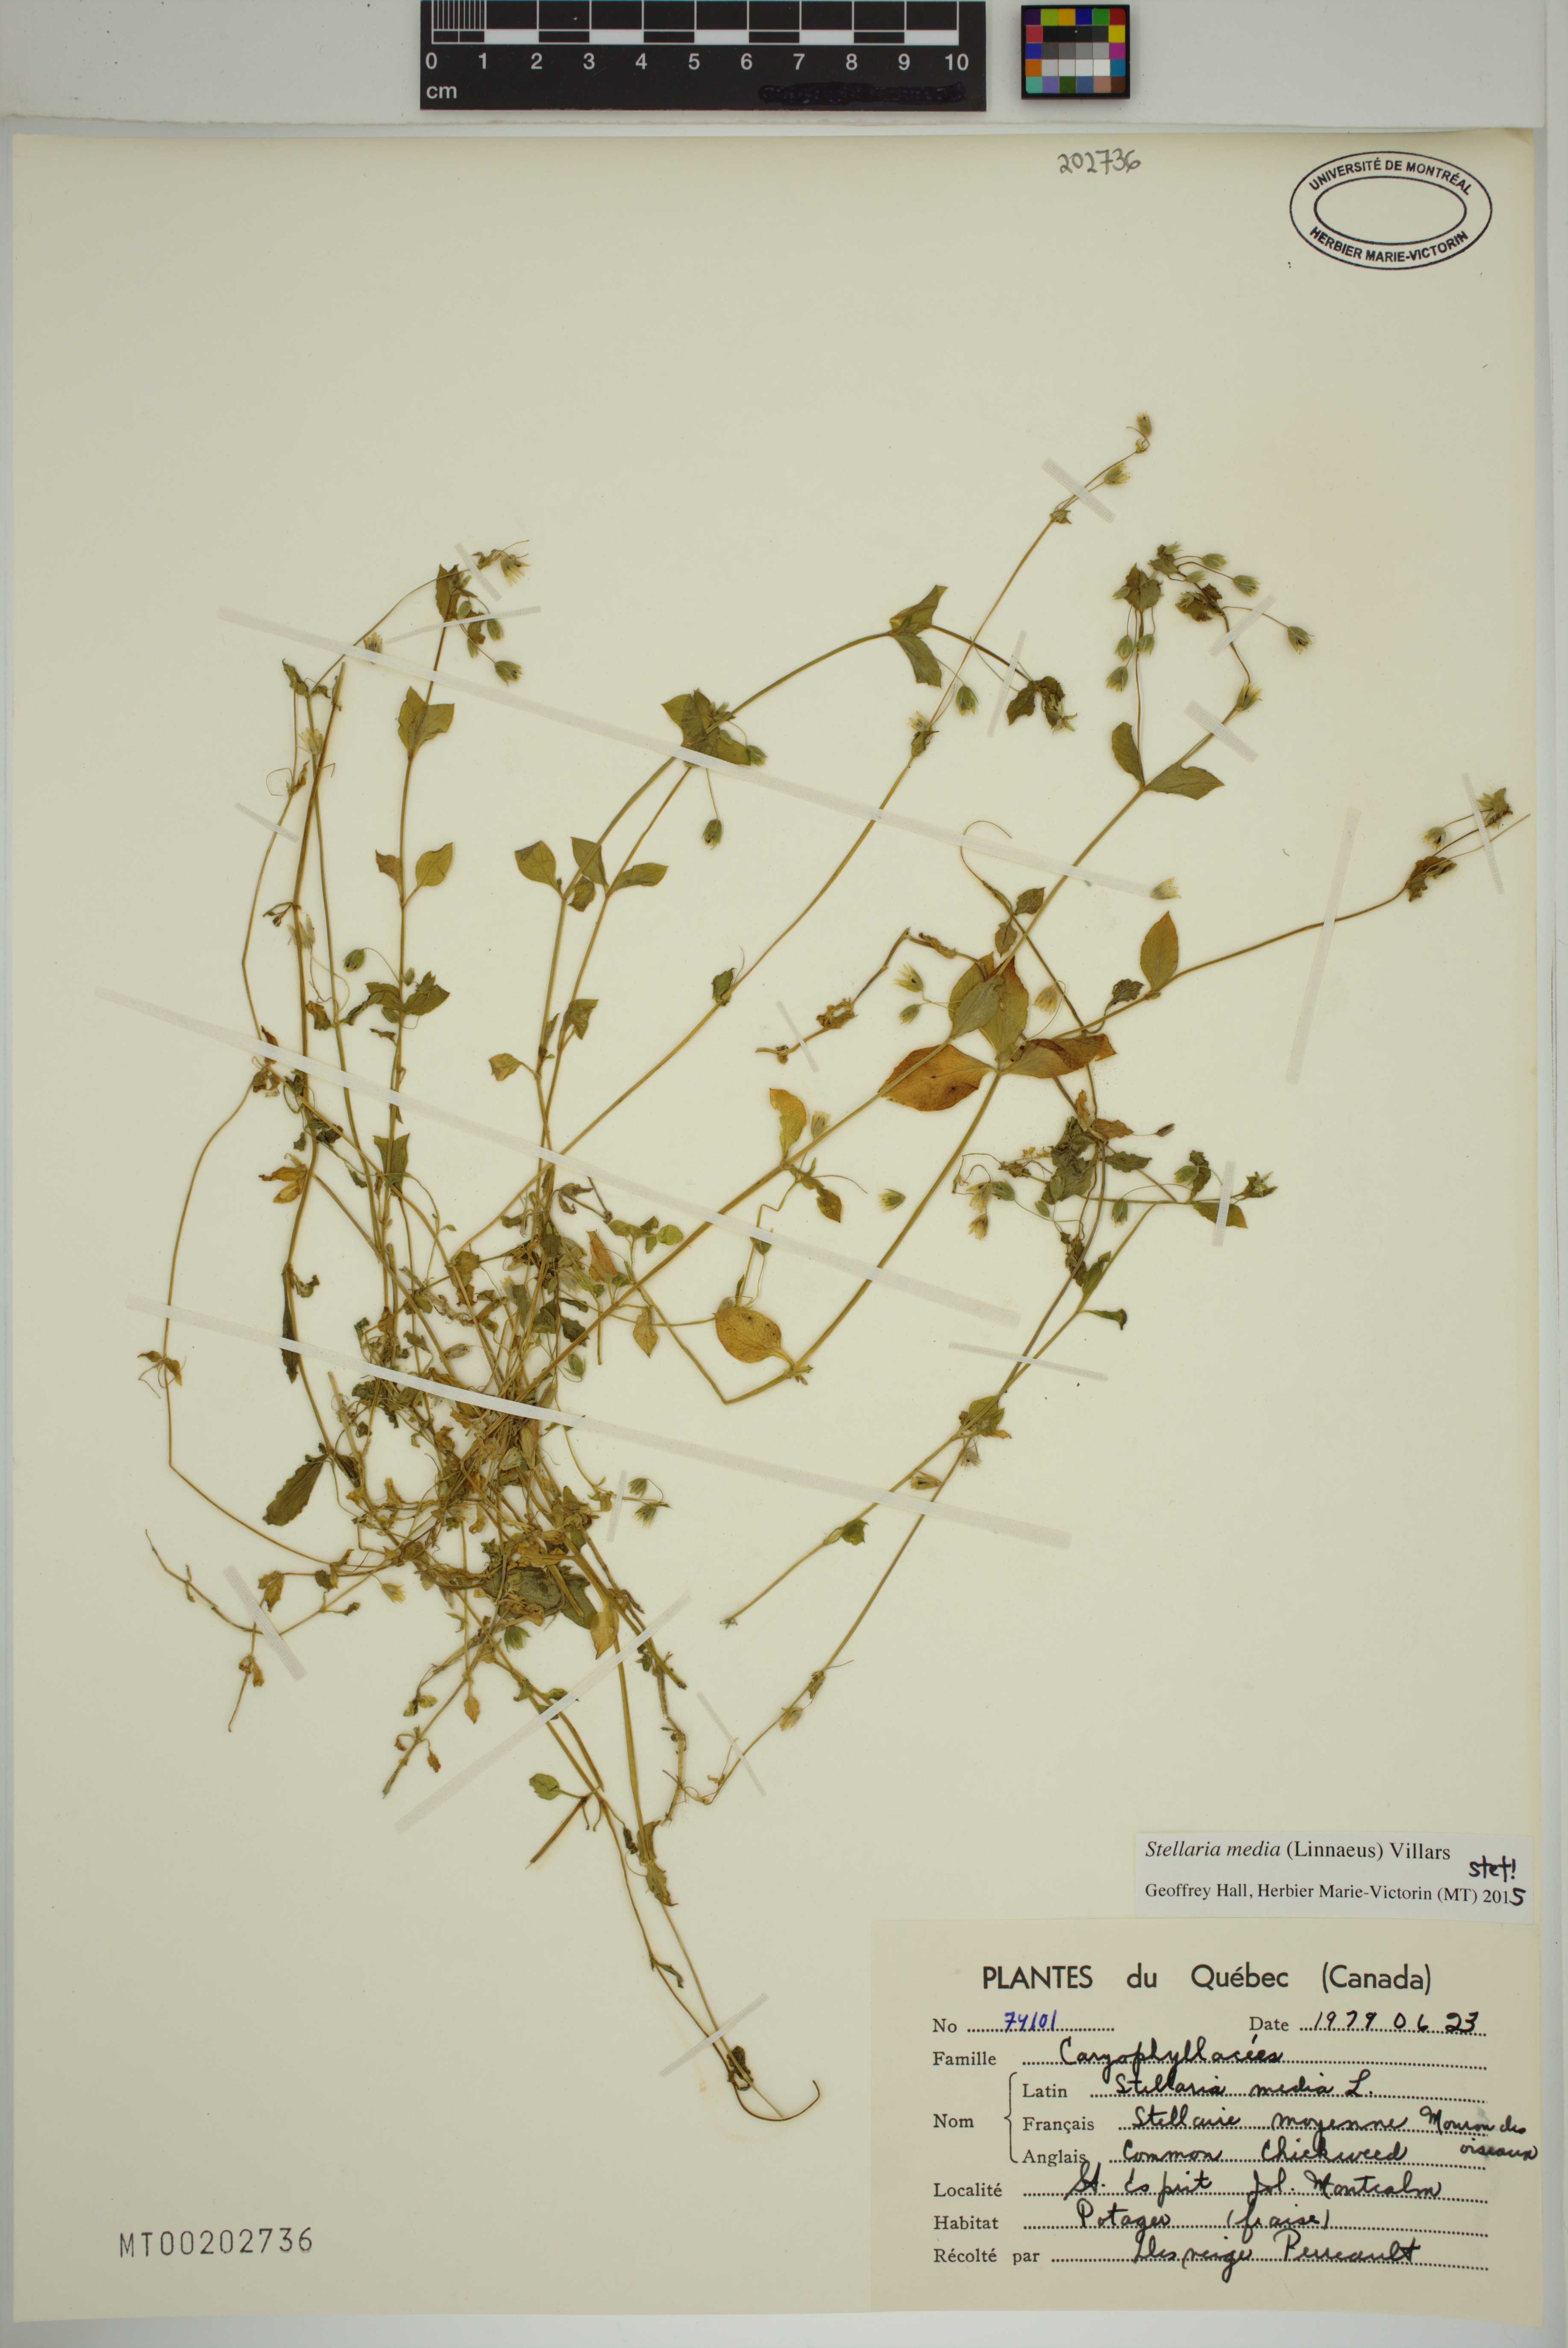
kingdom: Plantae
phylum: Tracheophyta
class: Magnoliopsida
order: Caryophyllales
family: Caryophyllaceae
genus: Stellaria
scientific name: Stellaria media
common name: Common chickweed
